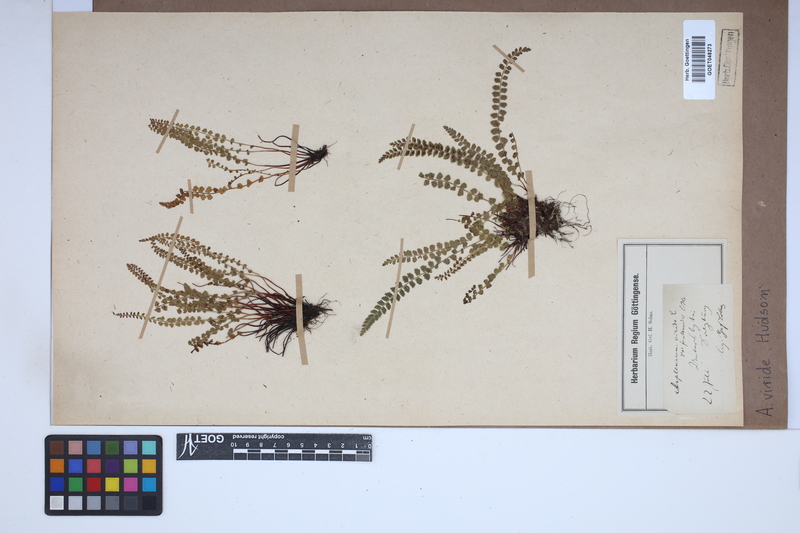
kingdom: Plantae
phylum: Tracheophyta
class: Polypodiopsida
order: Polypodiales
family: Aspleniaceae
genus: Asplenium
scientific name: Asplenium viride
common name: Green spleenwort
